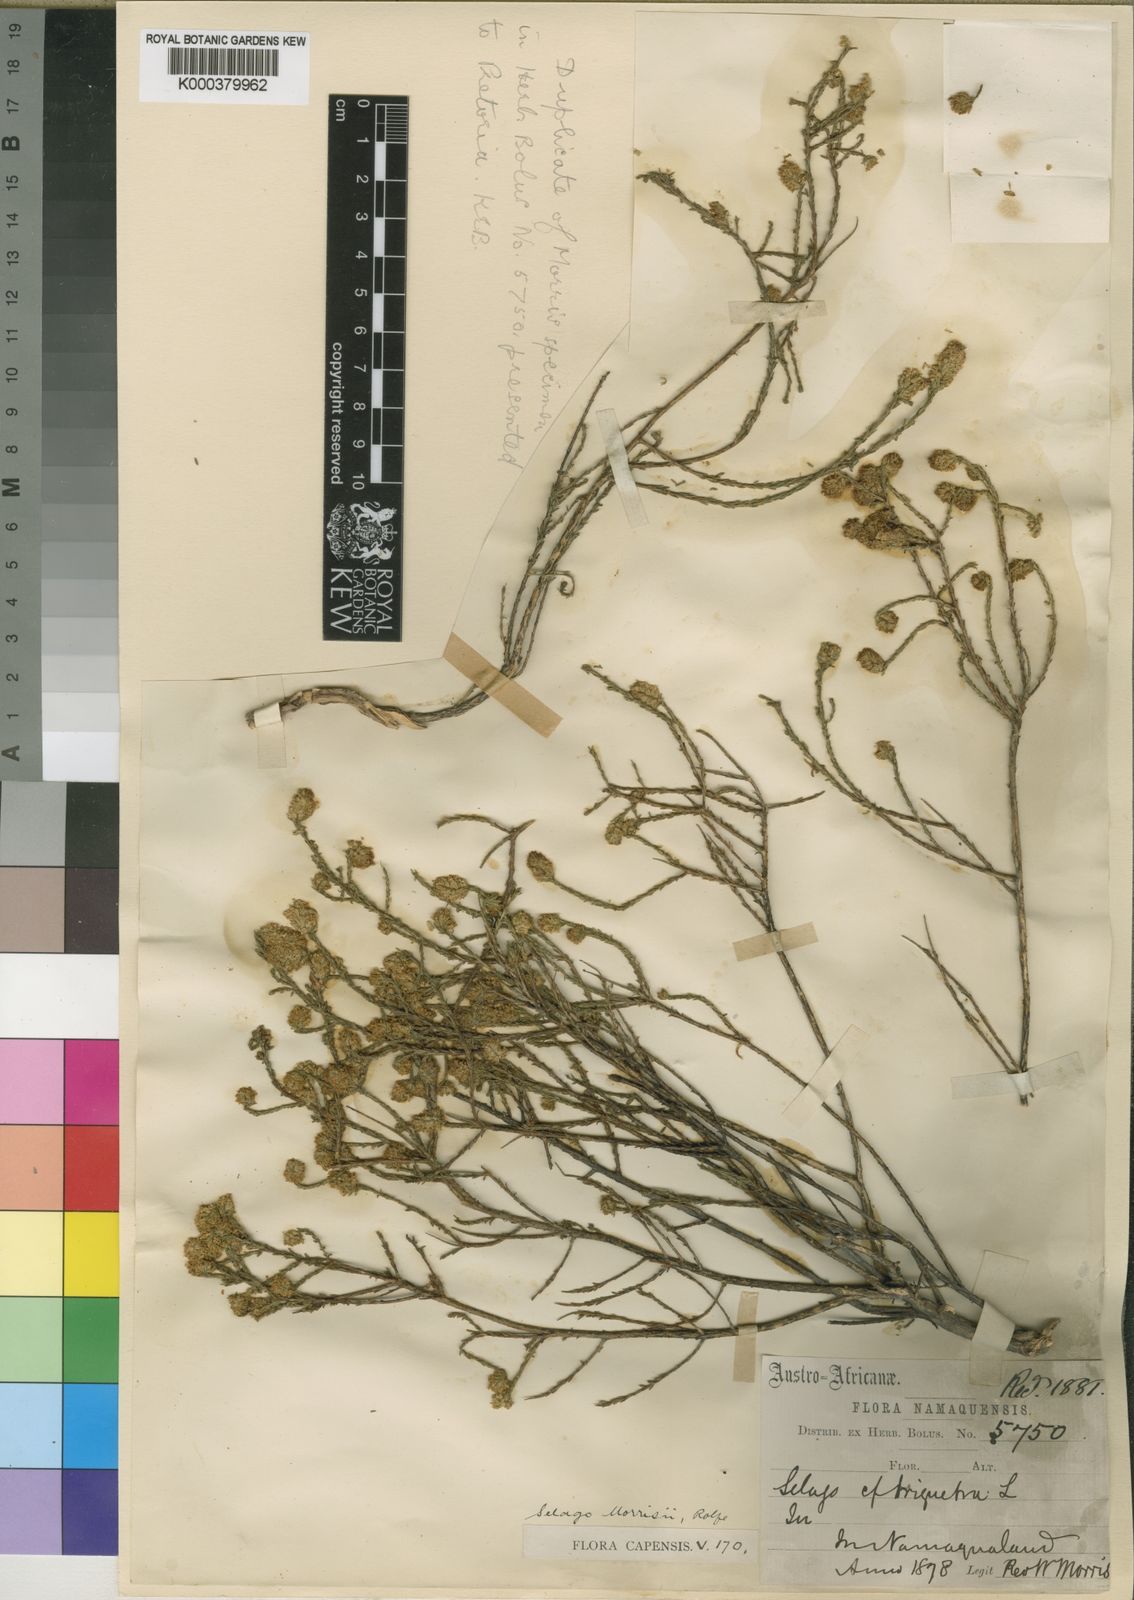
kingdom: Plantae
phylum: Tracheophyta
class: Magnoliopsida
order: Lamiales
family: Scrophulariaceae
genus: Selago
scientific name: Selago morrisii
